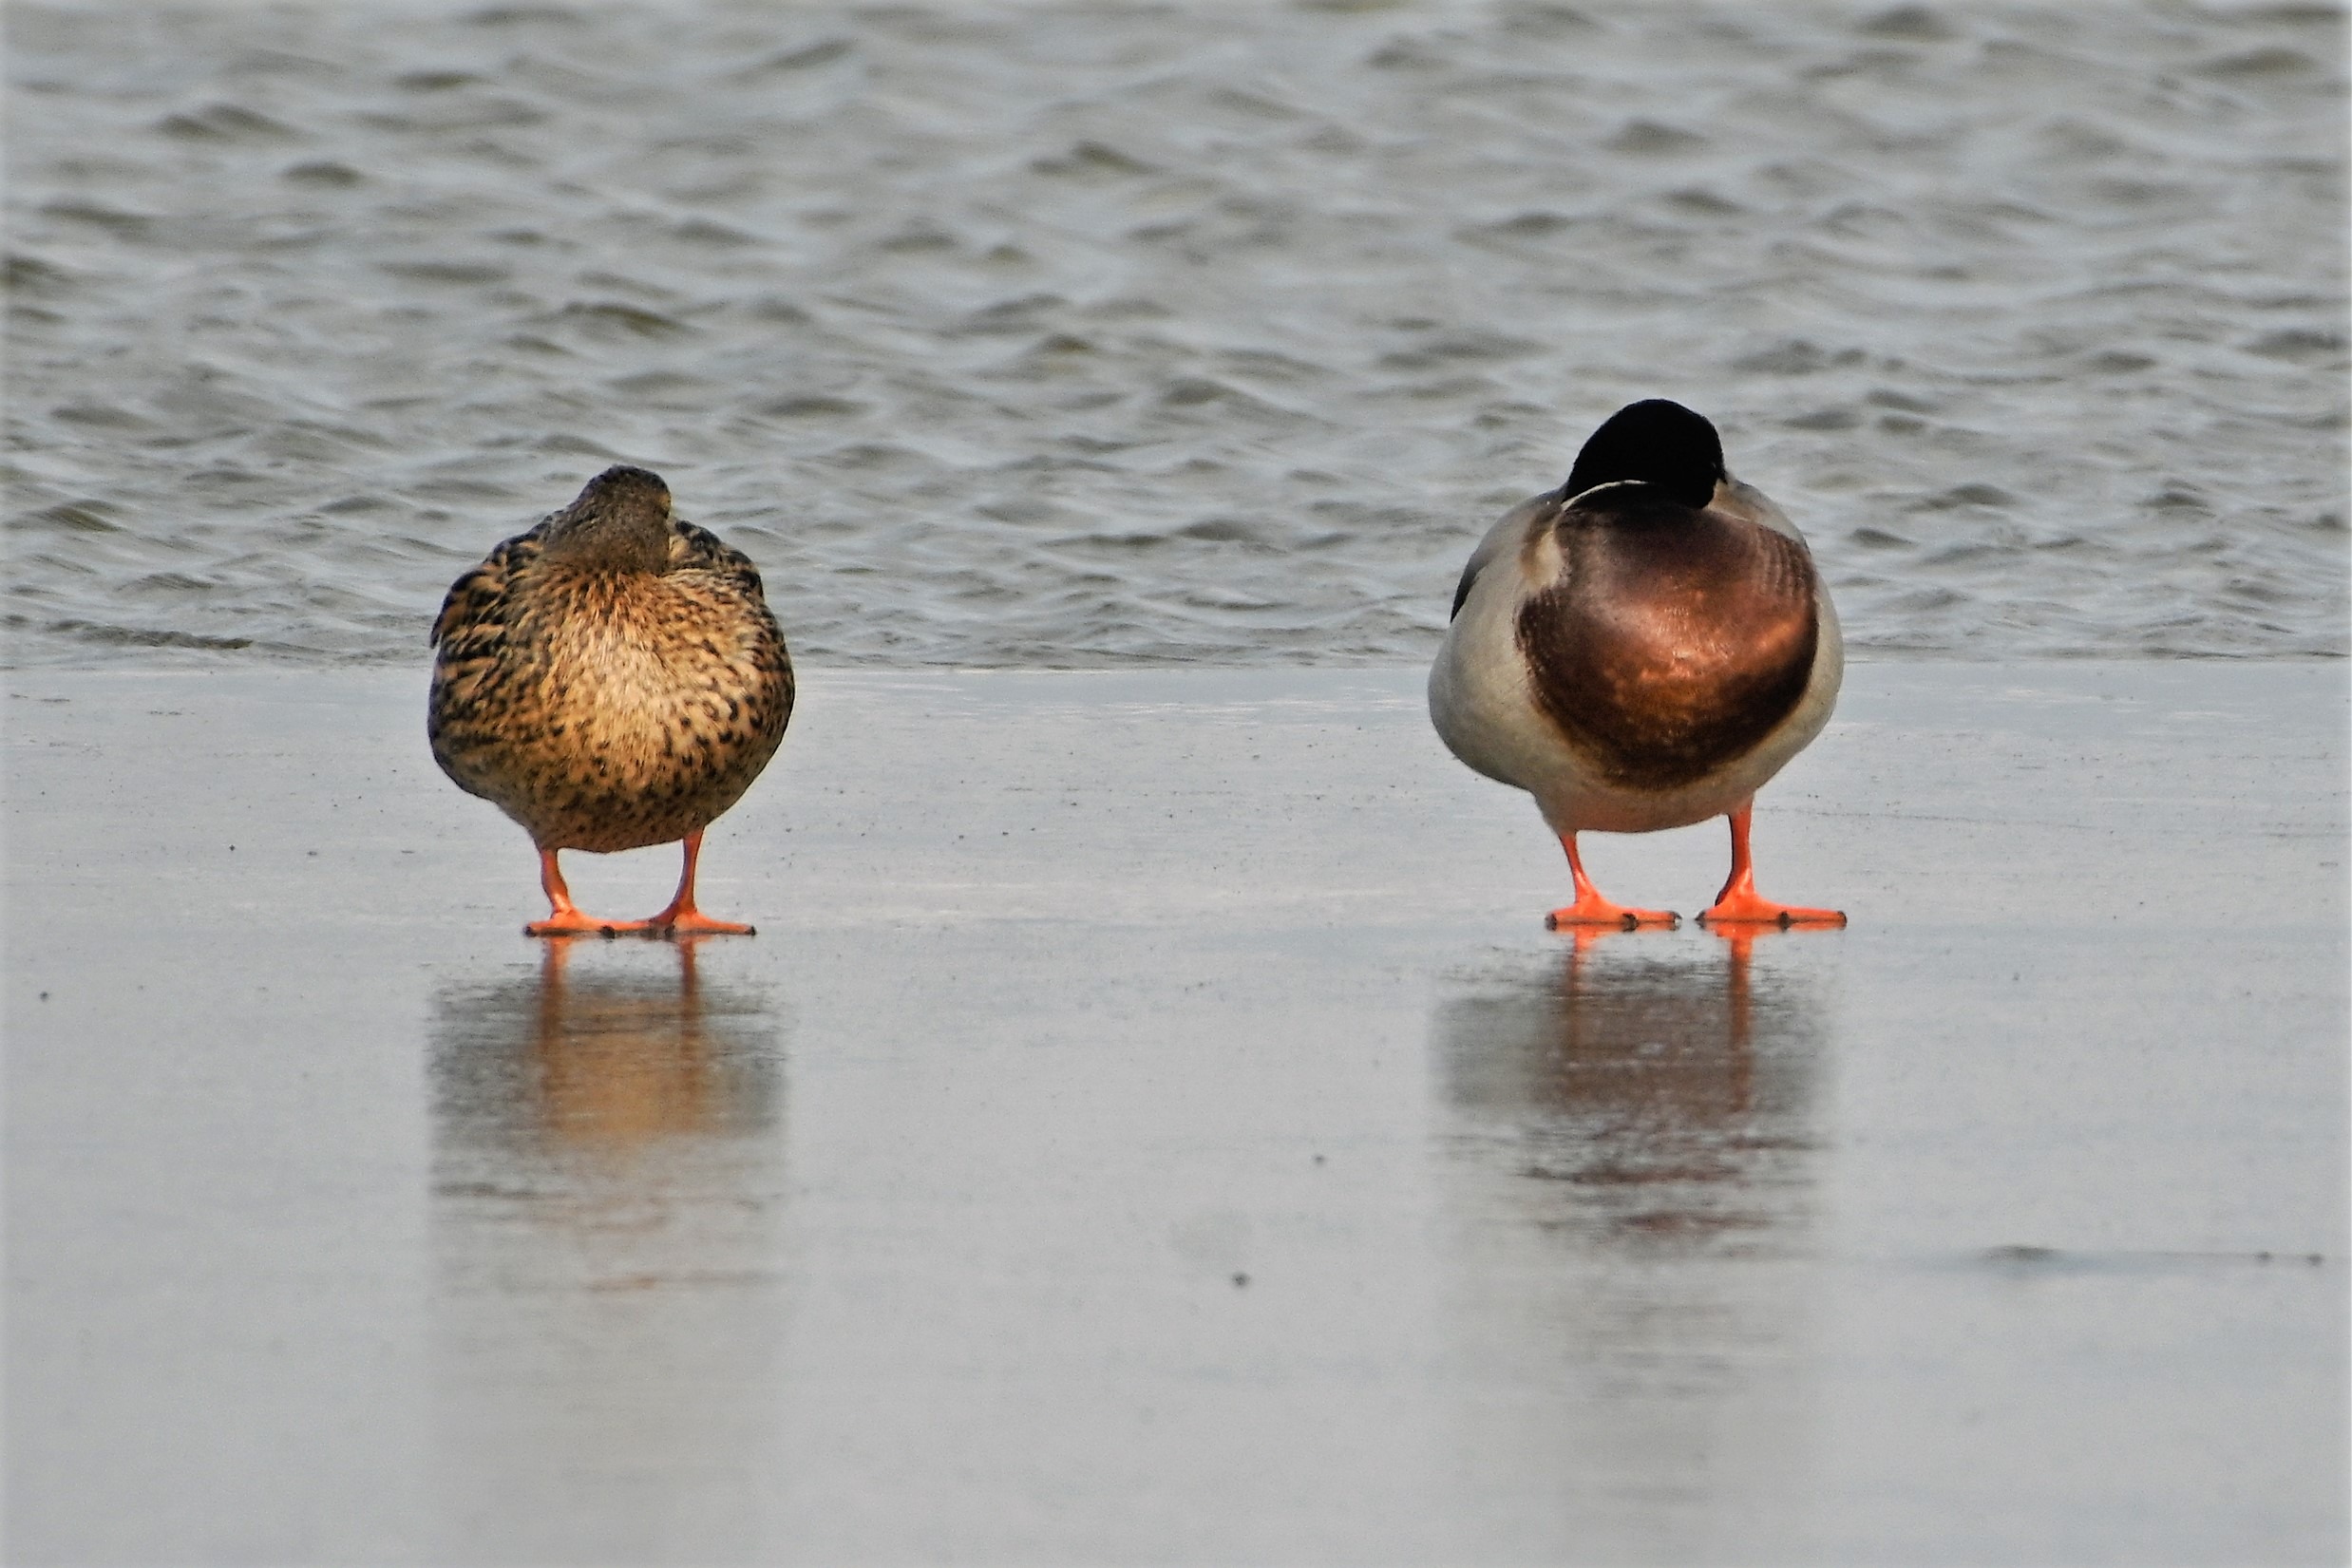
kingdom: Animalia
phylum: Chordata
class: Aves
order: Anseriformes
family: Anatidae
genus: Anas
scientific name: Anas platyrhynchos
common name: Gråand
